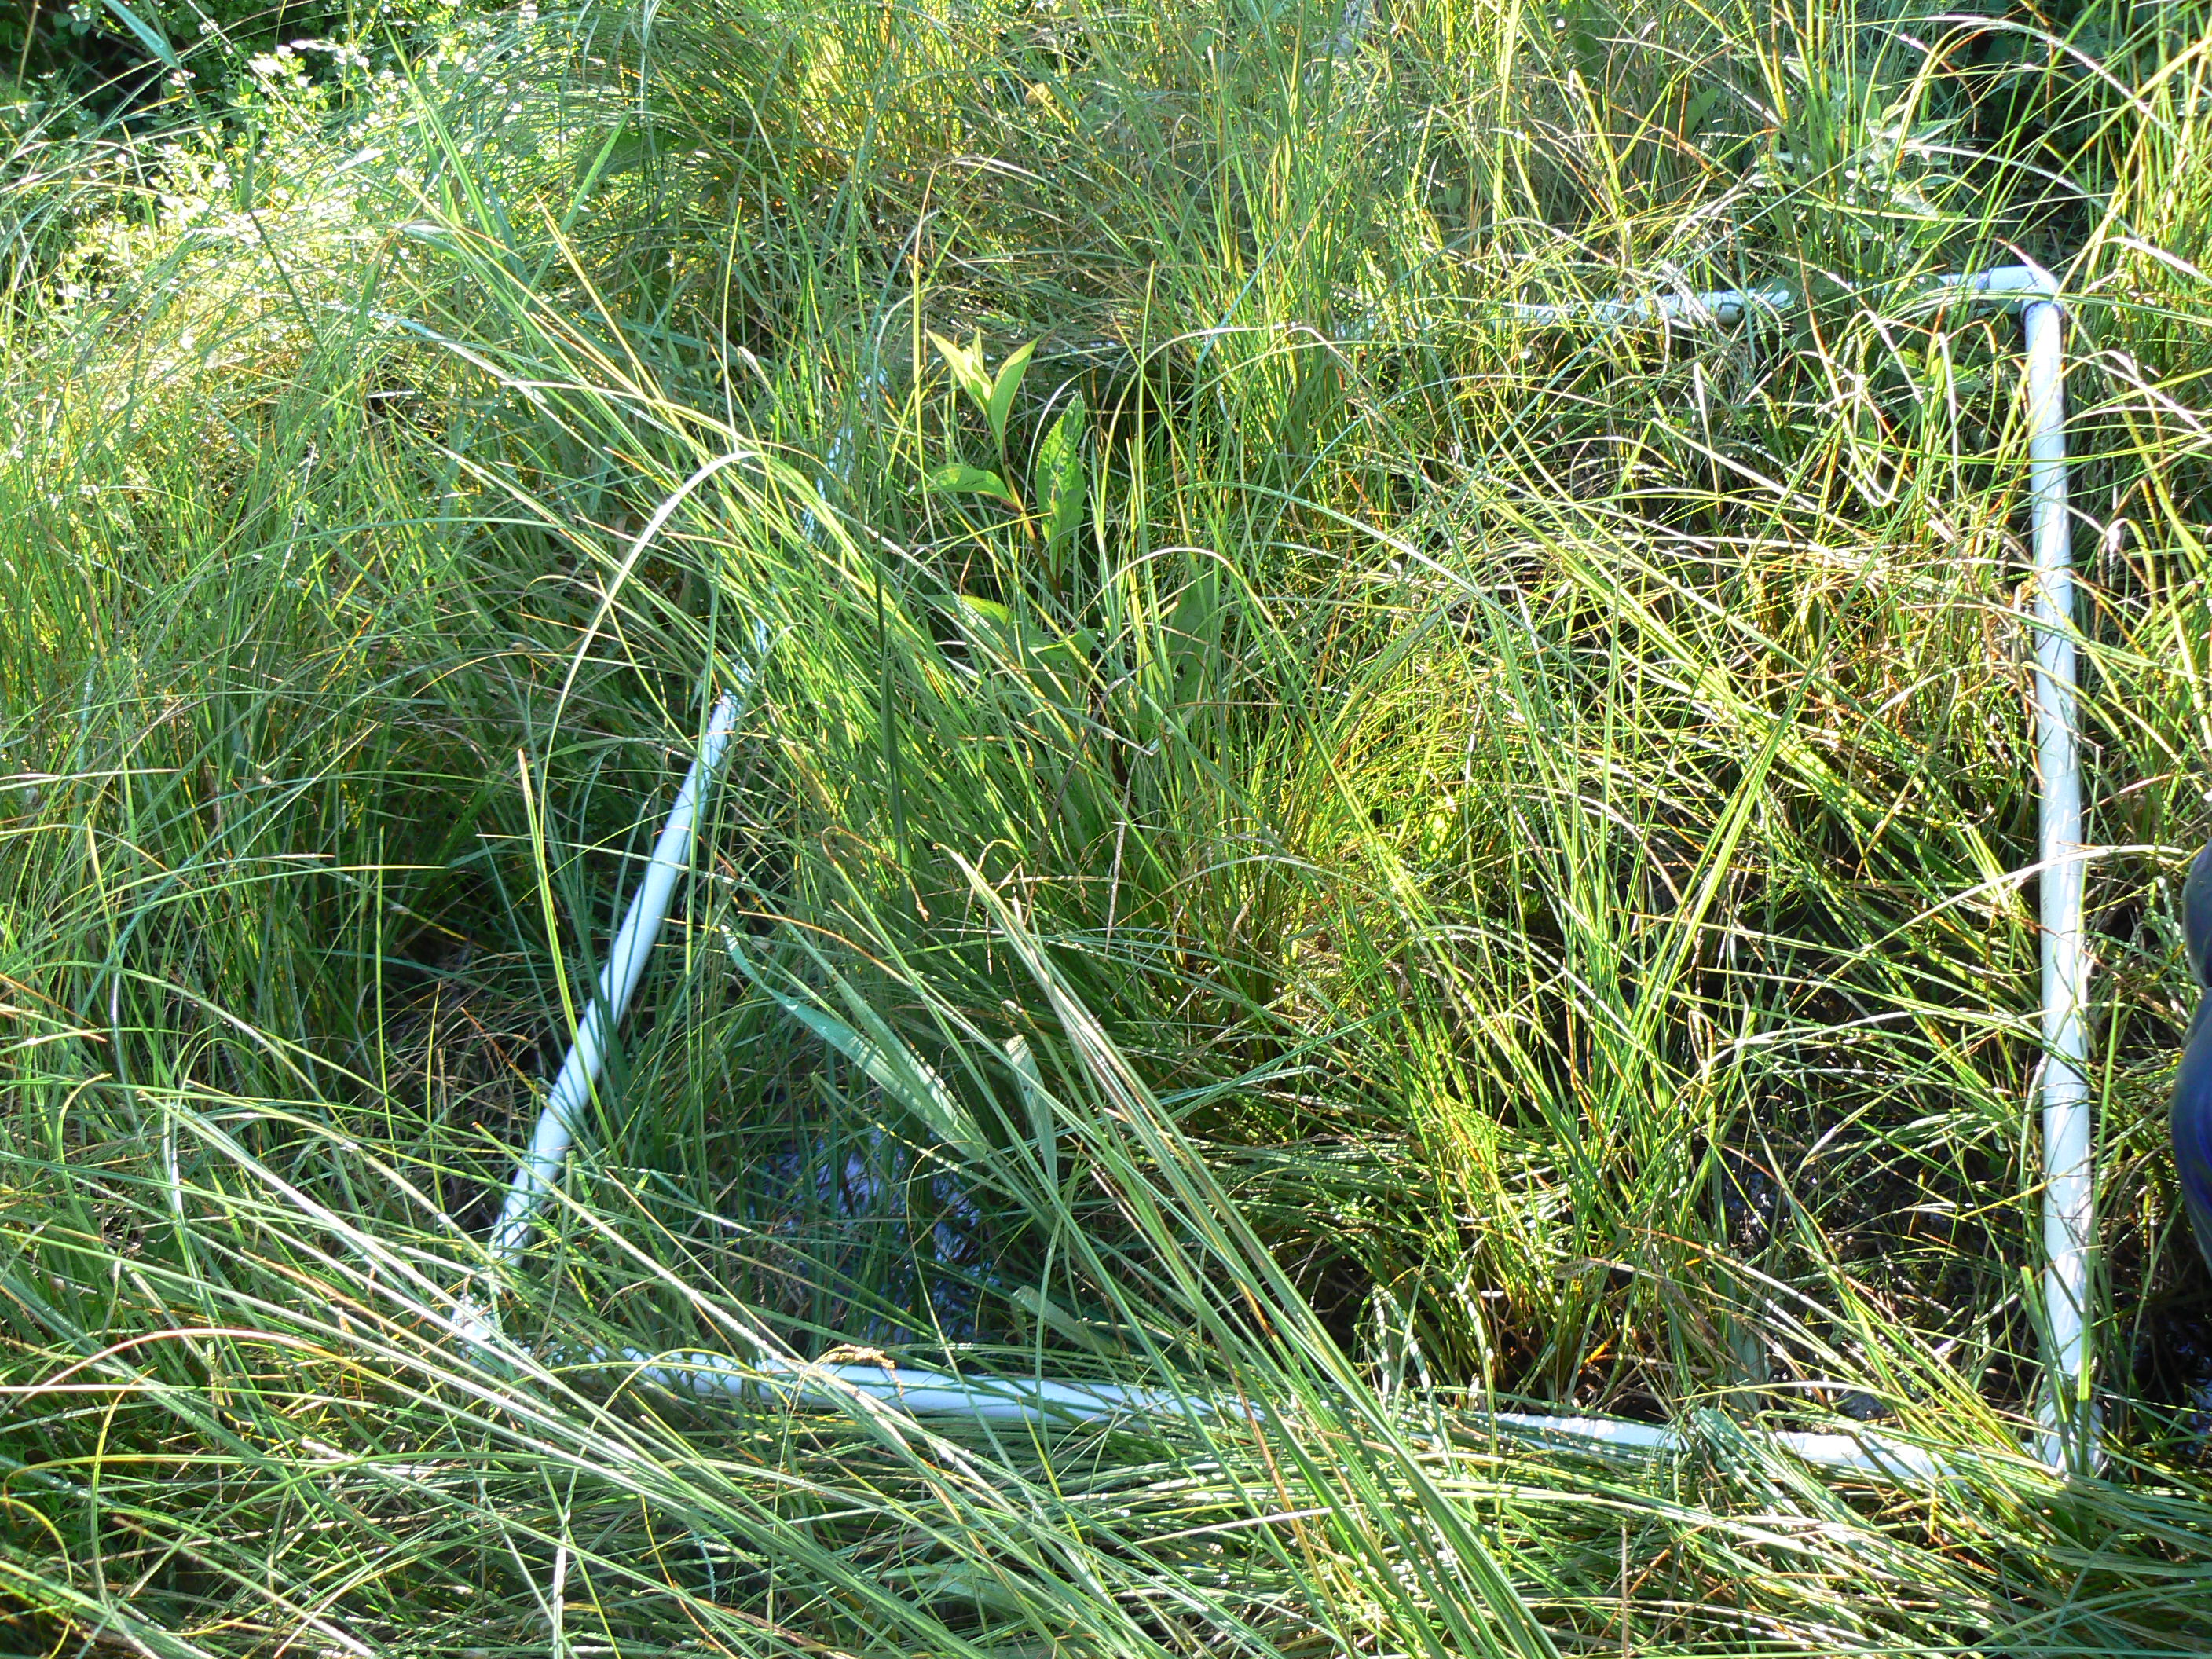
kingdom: Plantae
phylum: Tracheophyta
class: Magnoliopsida
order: Lamiales
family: Lamiaceae
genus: Lycopus
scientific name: Lycopus uniflorus
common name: Northern bugleweed
